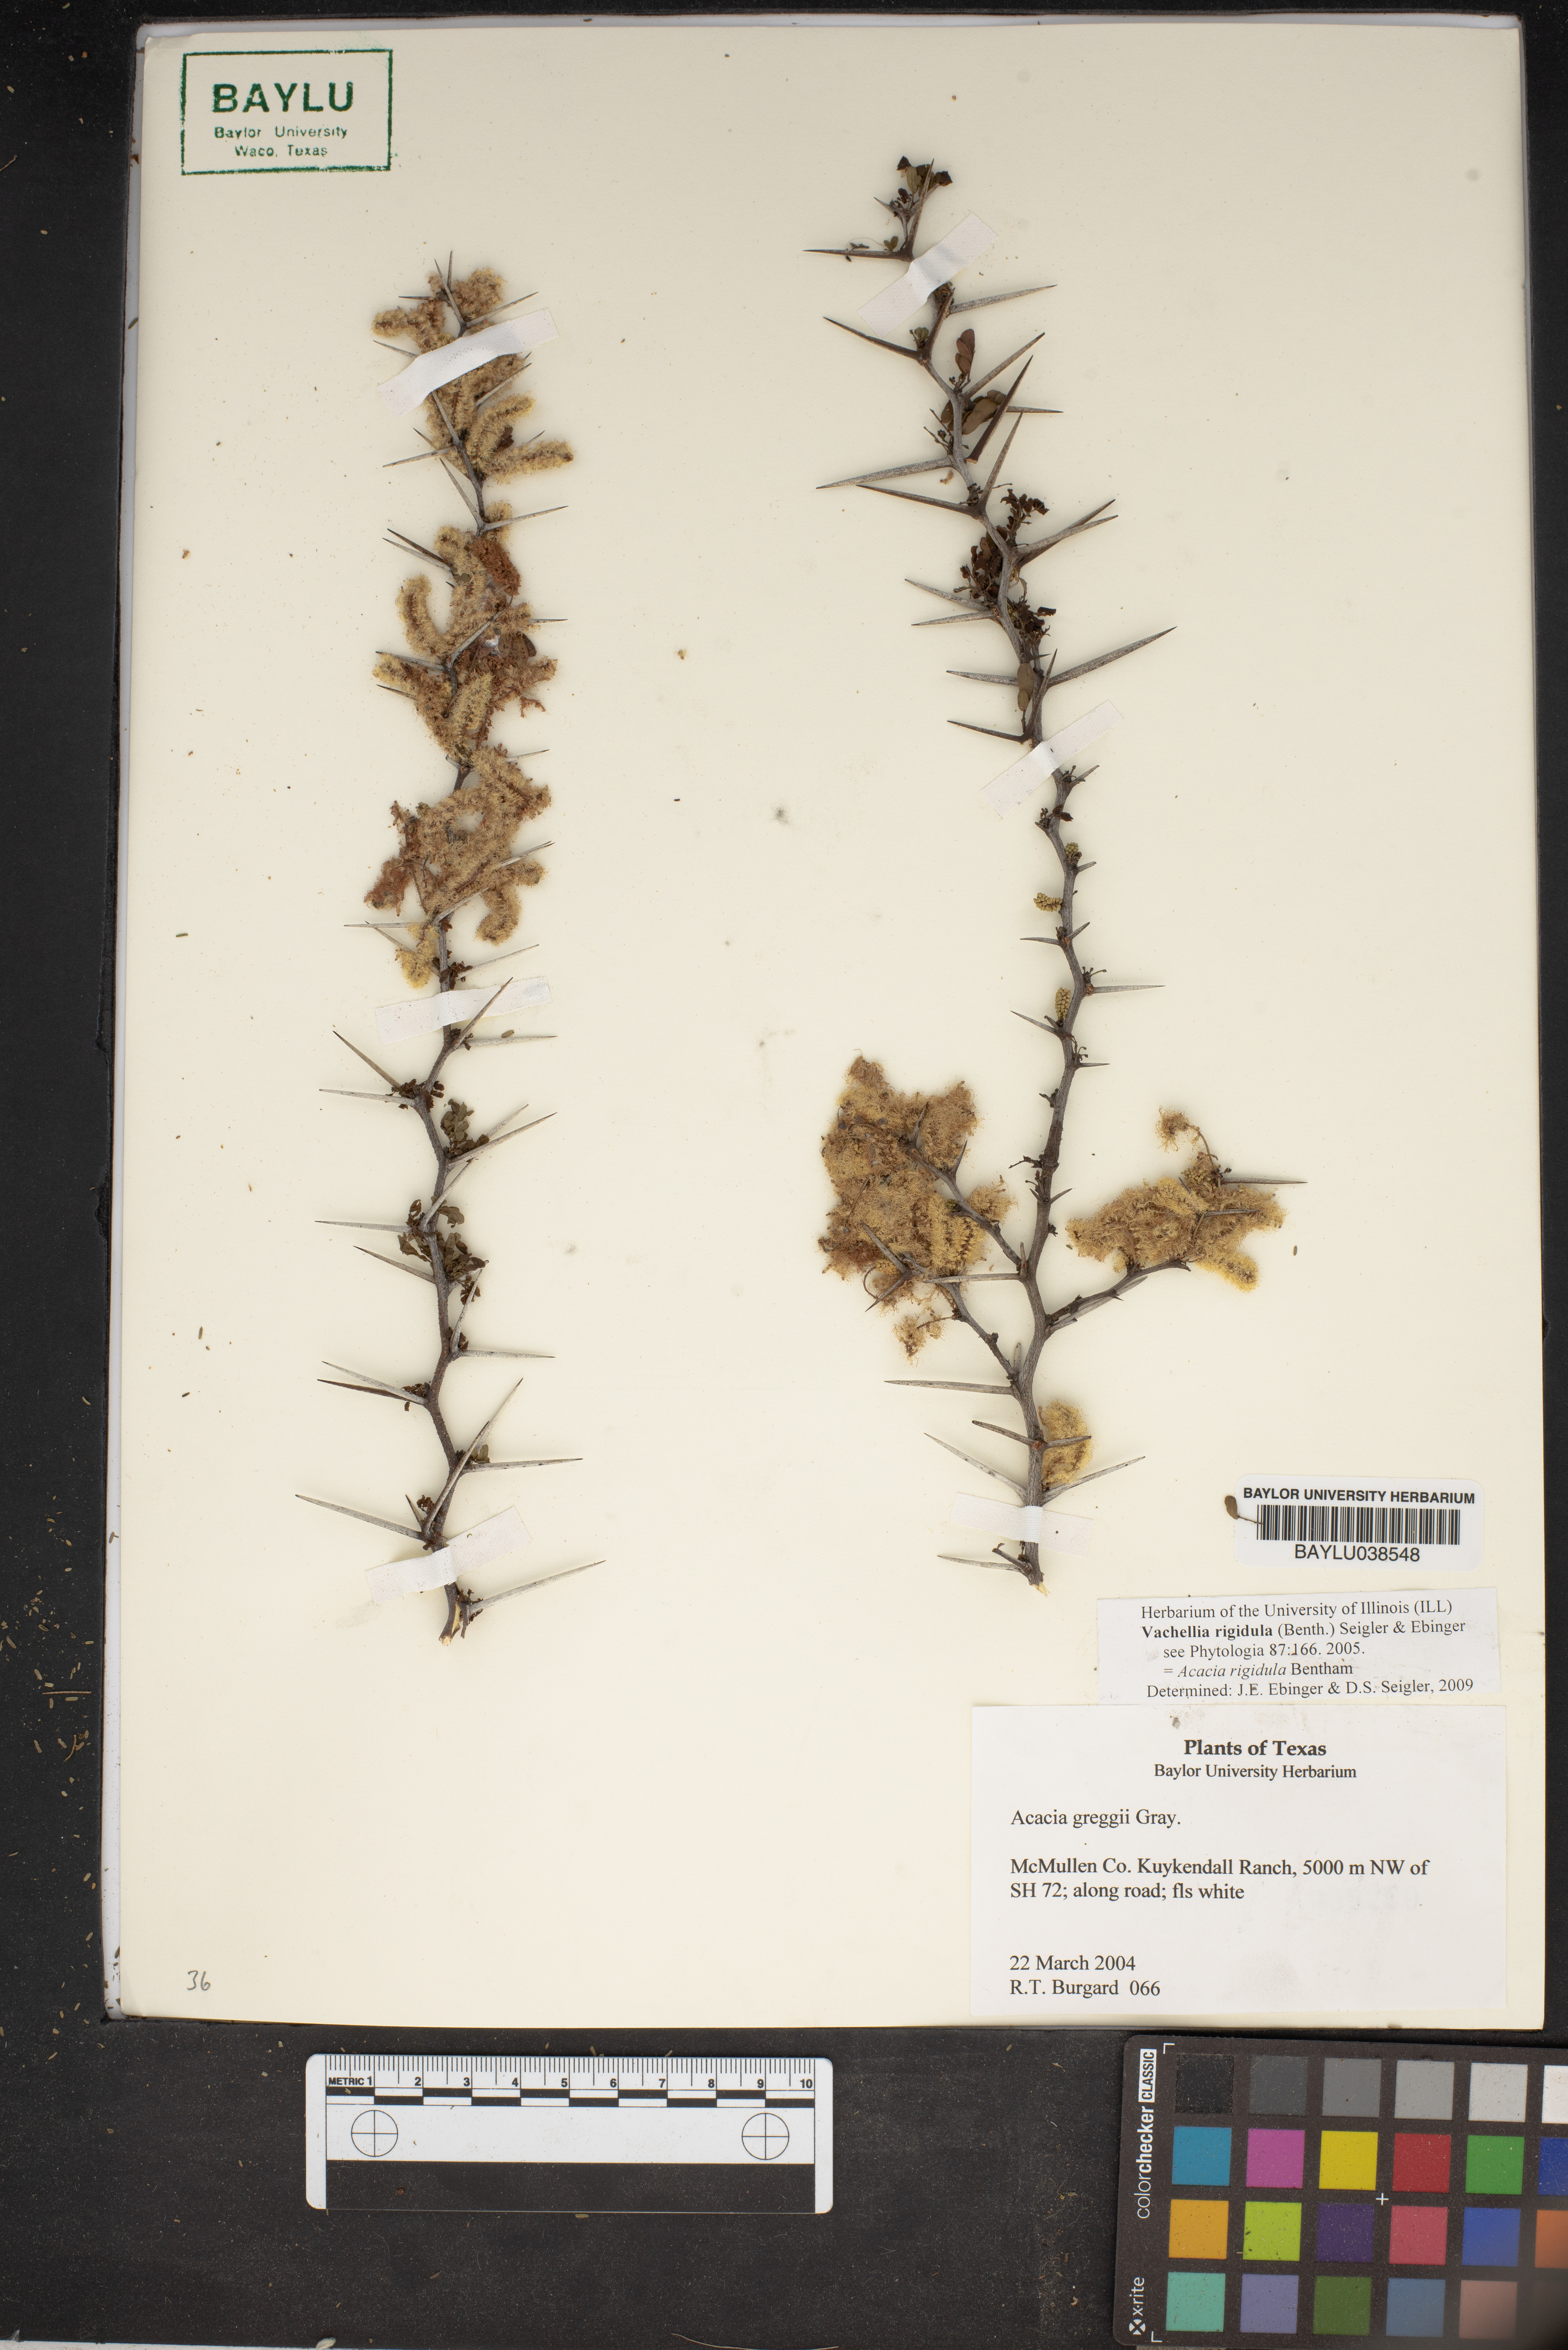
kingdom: Plantae
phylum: Tracheophyta
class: Magnoliopsida
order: Fabales
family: Fabaceae
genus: Vachellia
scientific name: Vachellia rigidula
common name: Blackbrush
